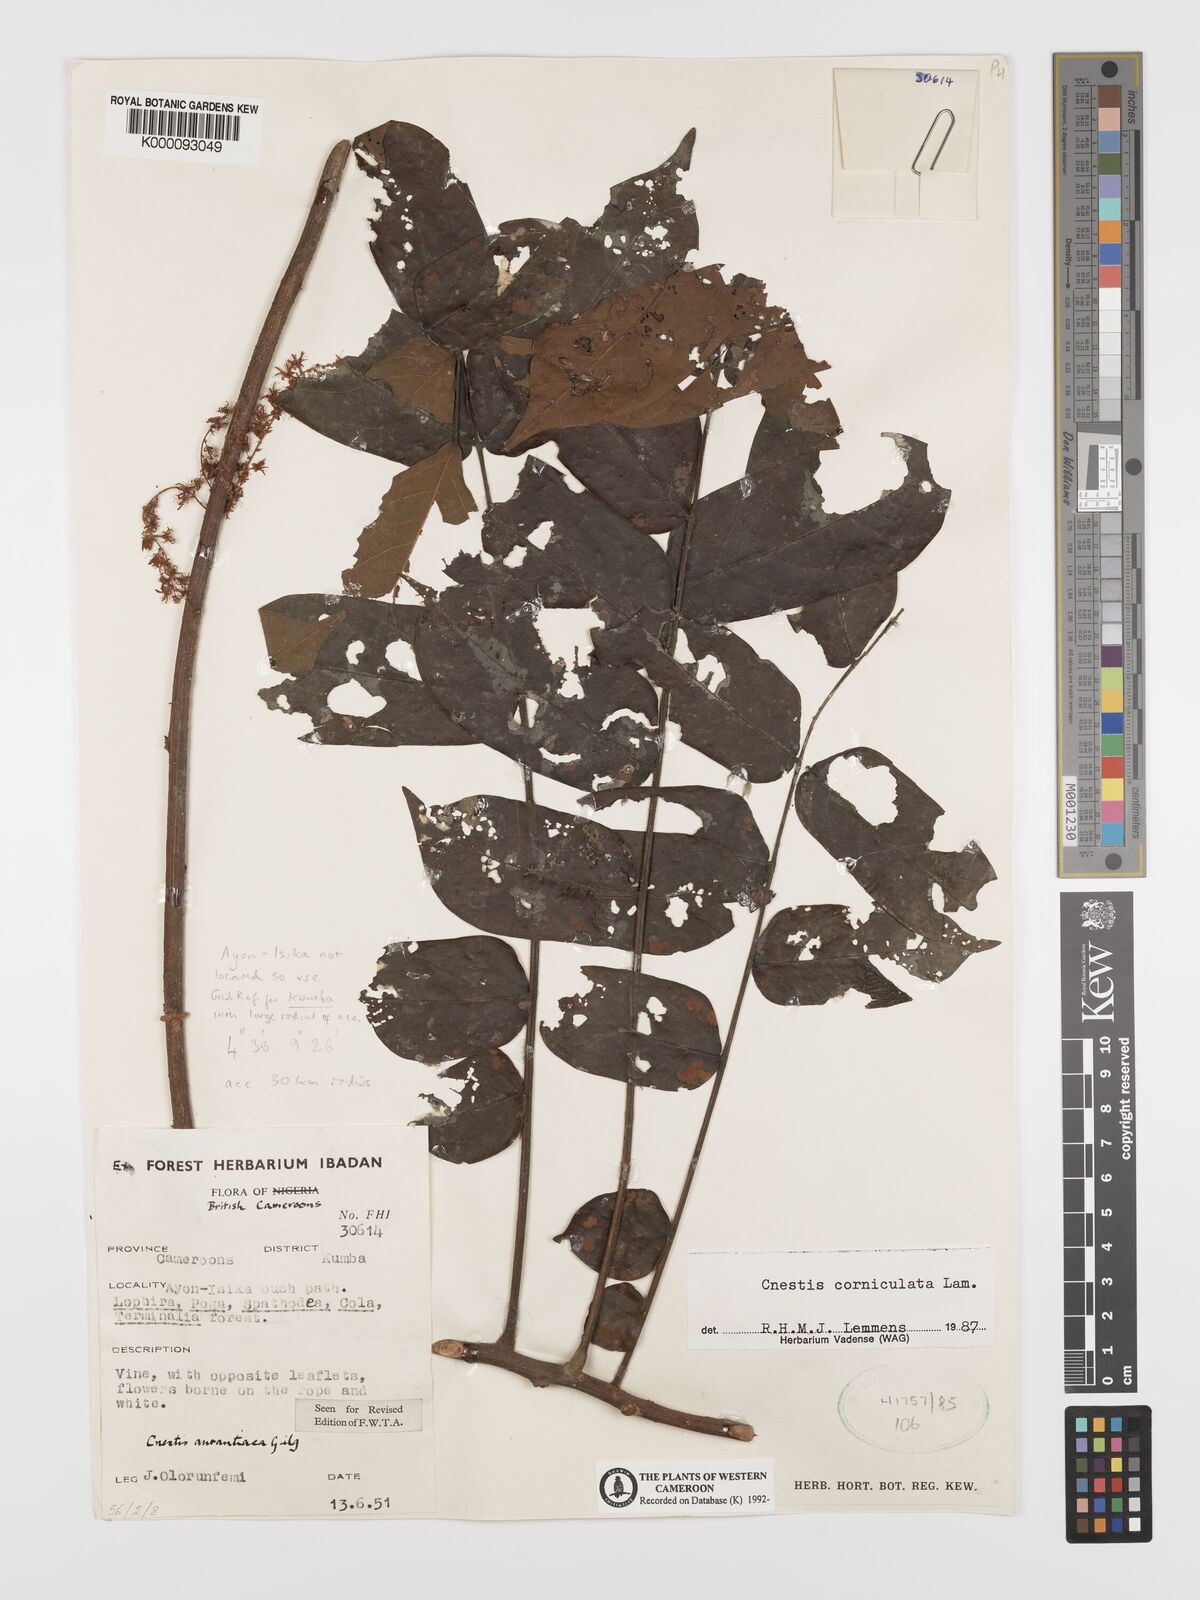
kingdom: Plantae
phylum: Tracheophyta
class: Magnoliopsida
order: Oxalidales
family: Connaraceae
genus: Cnestis
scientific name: Cnestis corniculata
